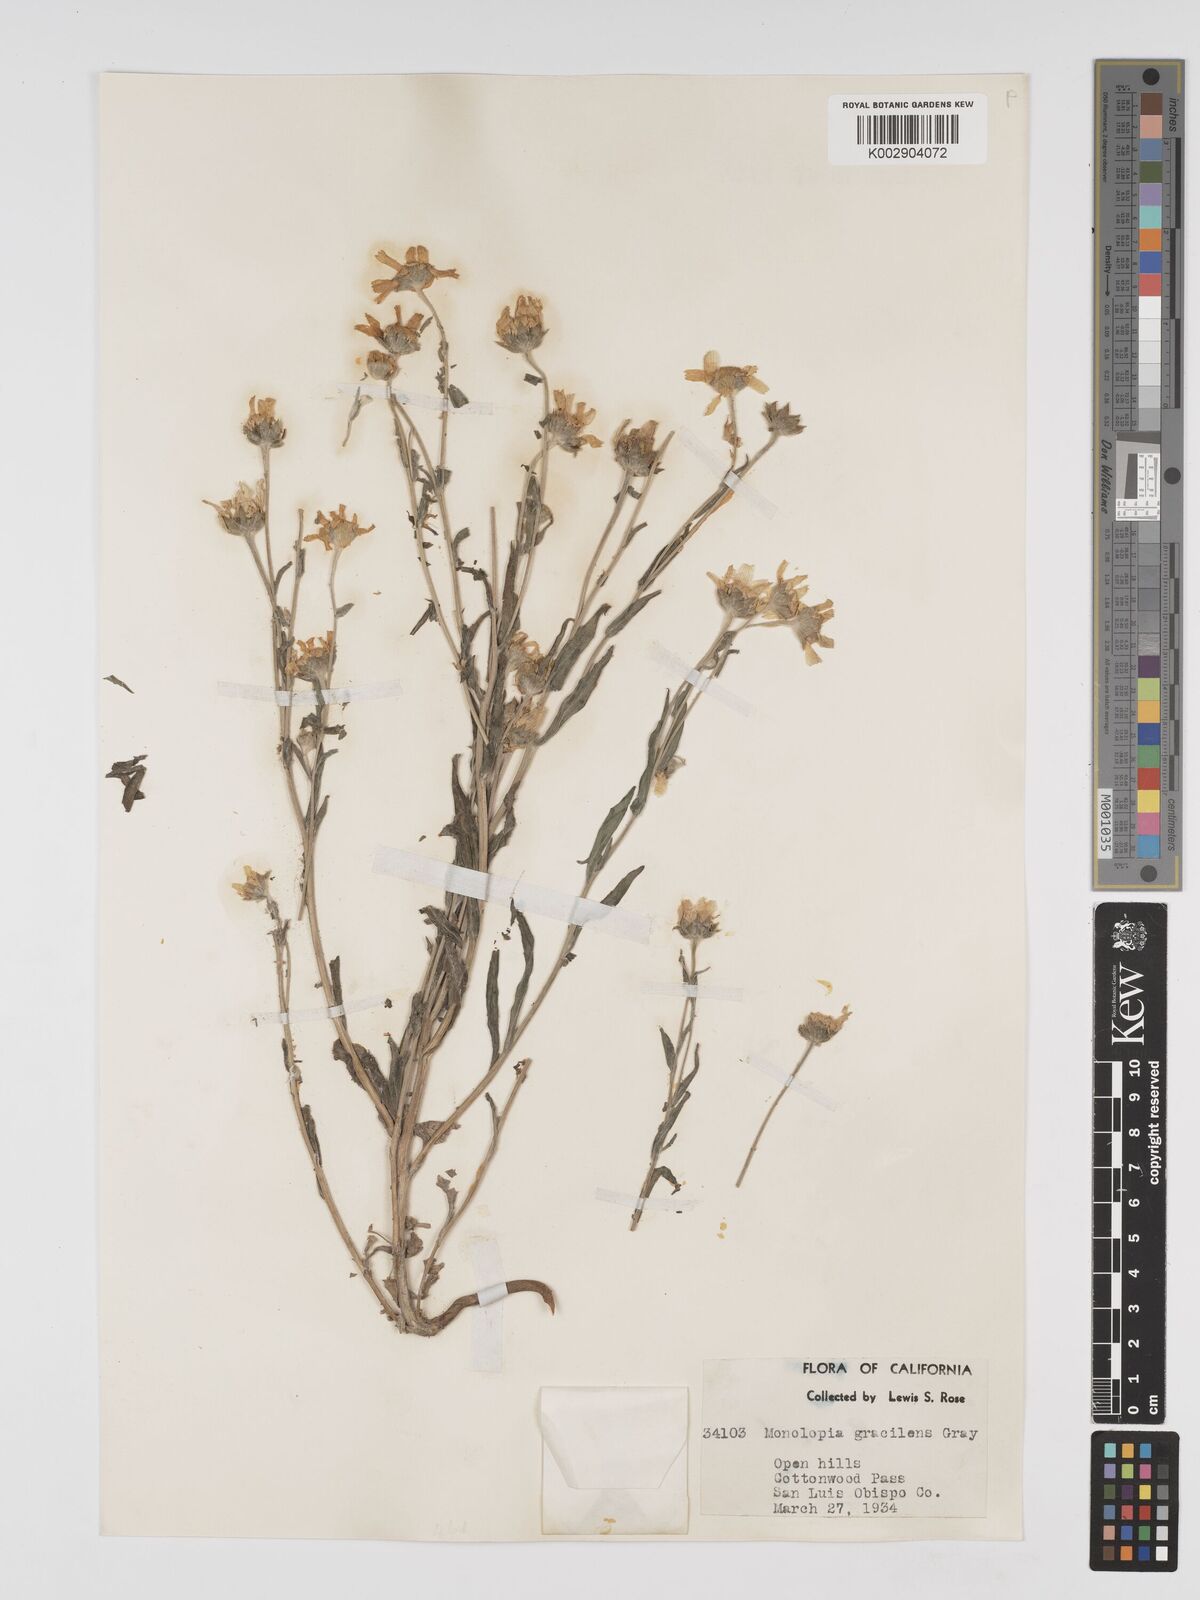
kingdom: Plantae
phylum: Tracheophyta
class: Magnoliopsida
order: Asterales
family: Asteraceae
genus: Monolopia
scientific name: Monolopia lanceolata
